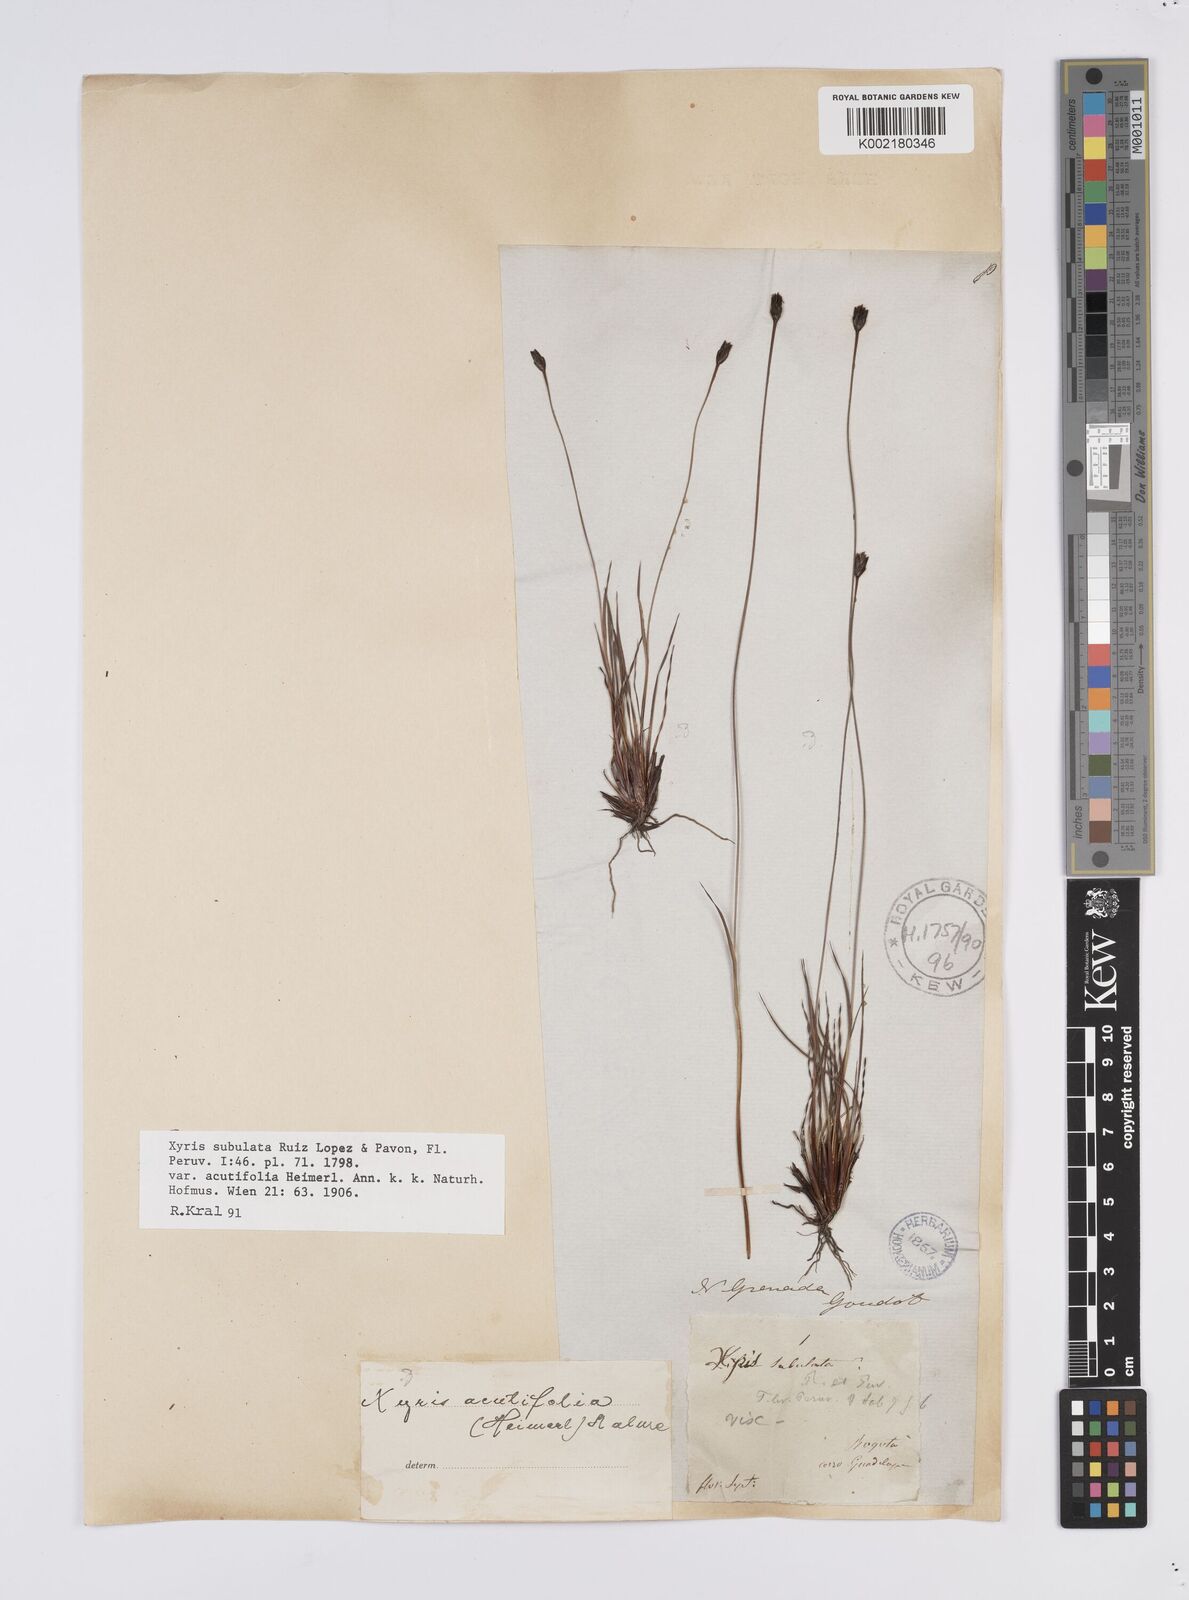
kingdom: Plantae
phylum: Tracheophyta
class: Liliopsida
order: Poales
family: Xyridaceae
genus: Xyris
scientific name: Xyris subulata
